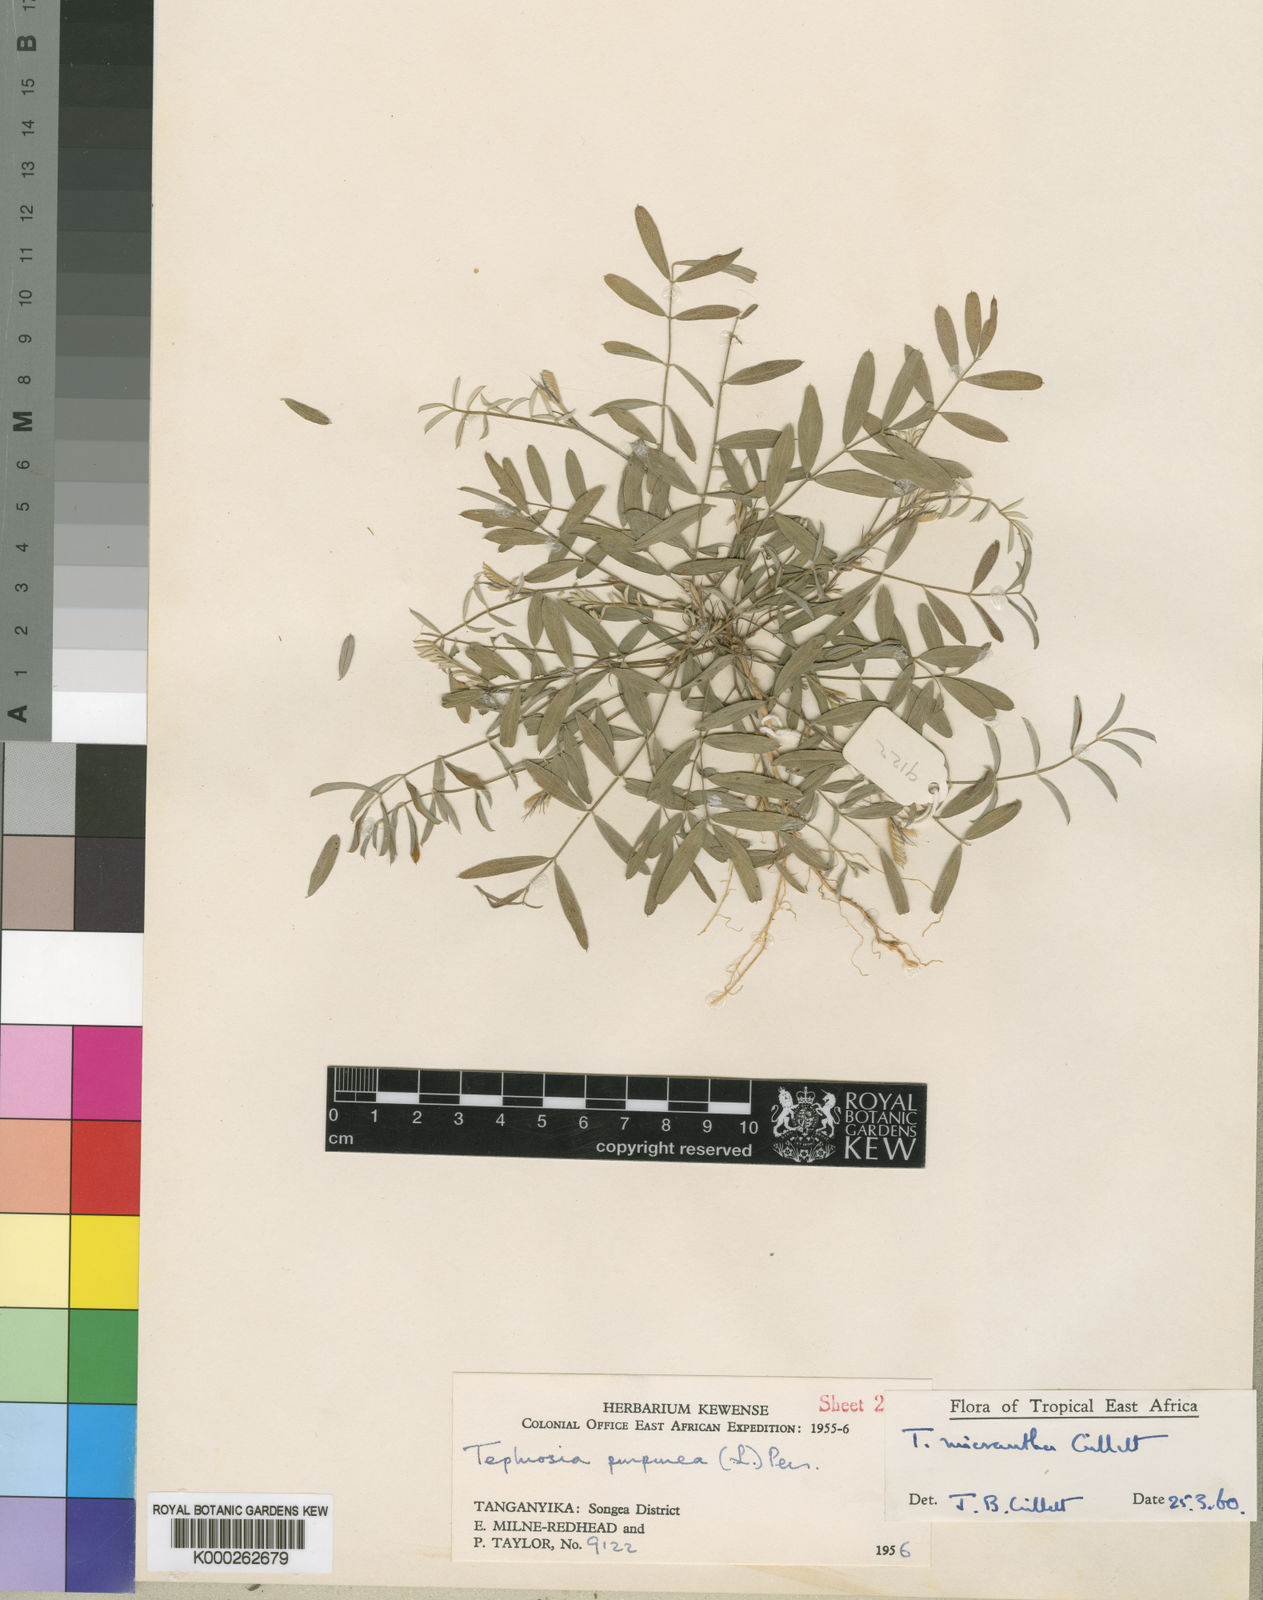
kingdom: Plantae
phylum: Tracheophyta
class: Magnoliopsida
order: Fabales
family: Fabaceae
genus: Tephrosia
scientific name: Tephrosia micrantha
